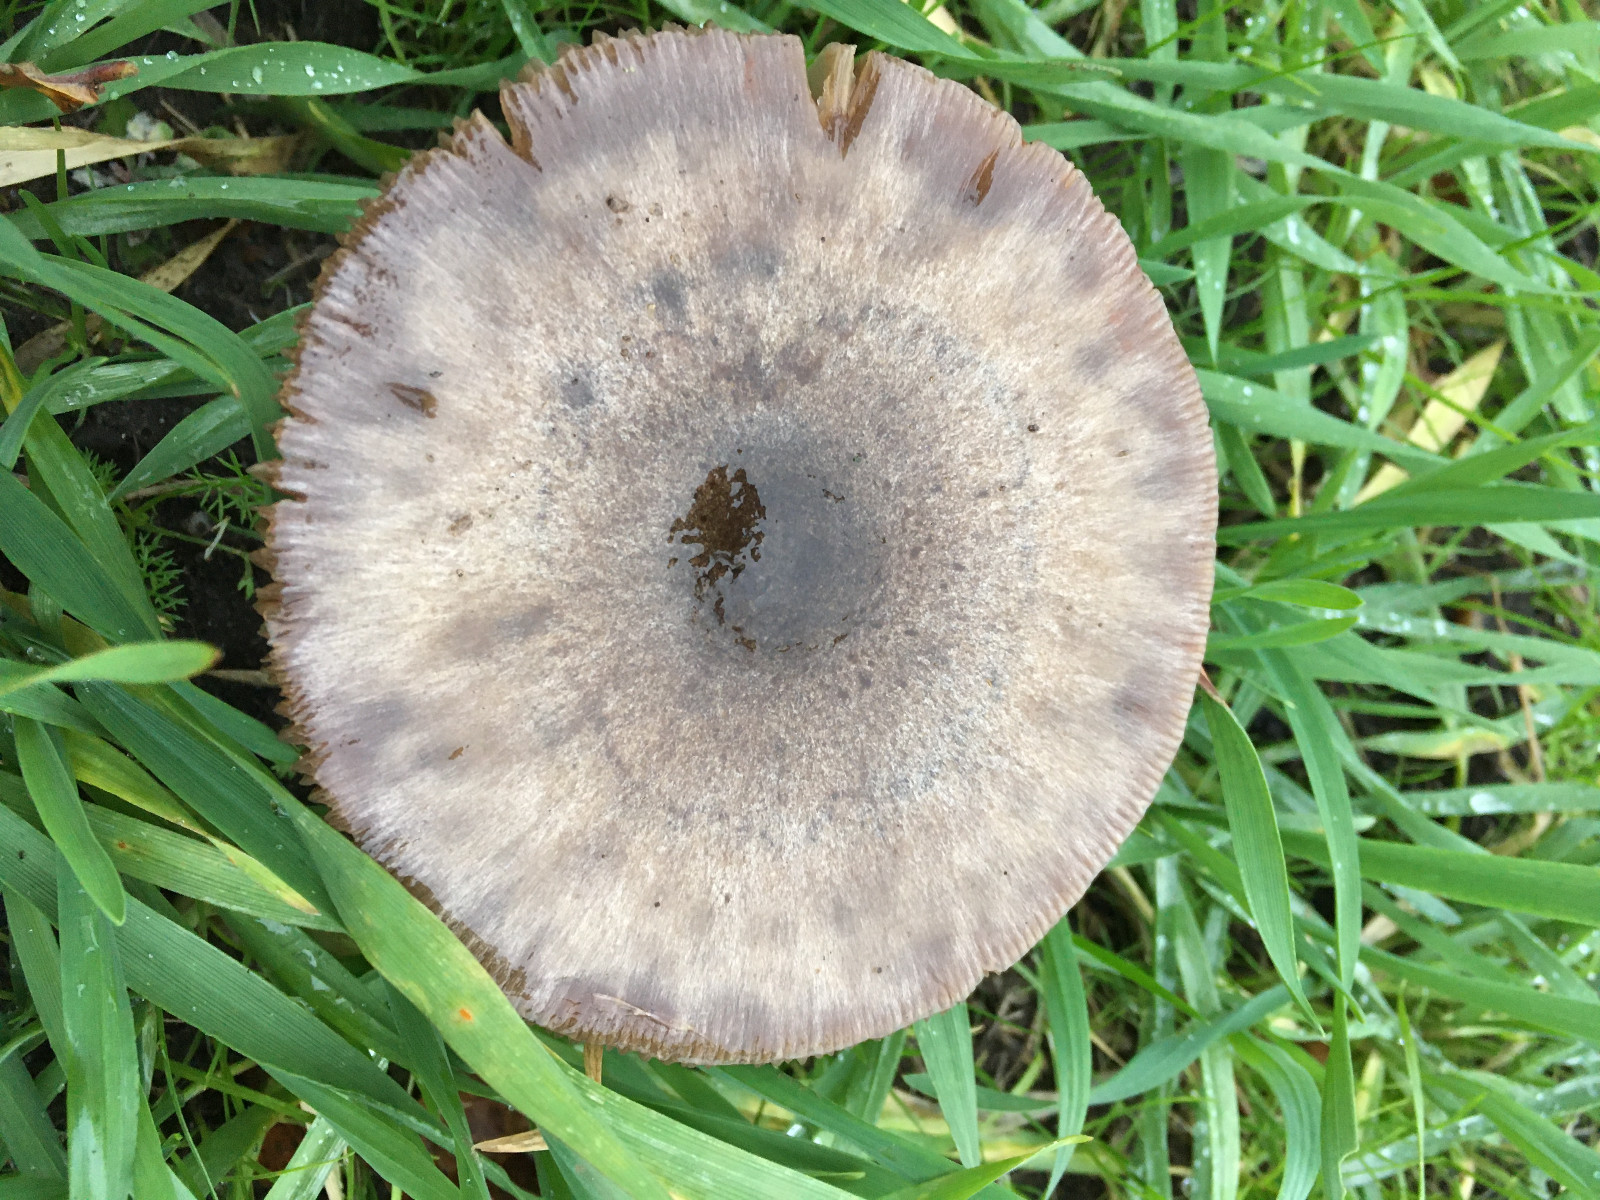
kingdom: Fungi
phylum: Basidiomycota
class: Agaricomycetes
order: Agaricales
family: Pluteaceae
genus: Volvopluteus
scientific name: Volvopluteus gloiocephalus
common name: høj posesvamp
